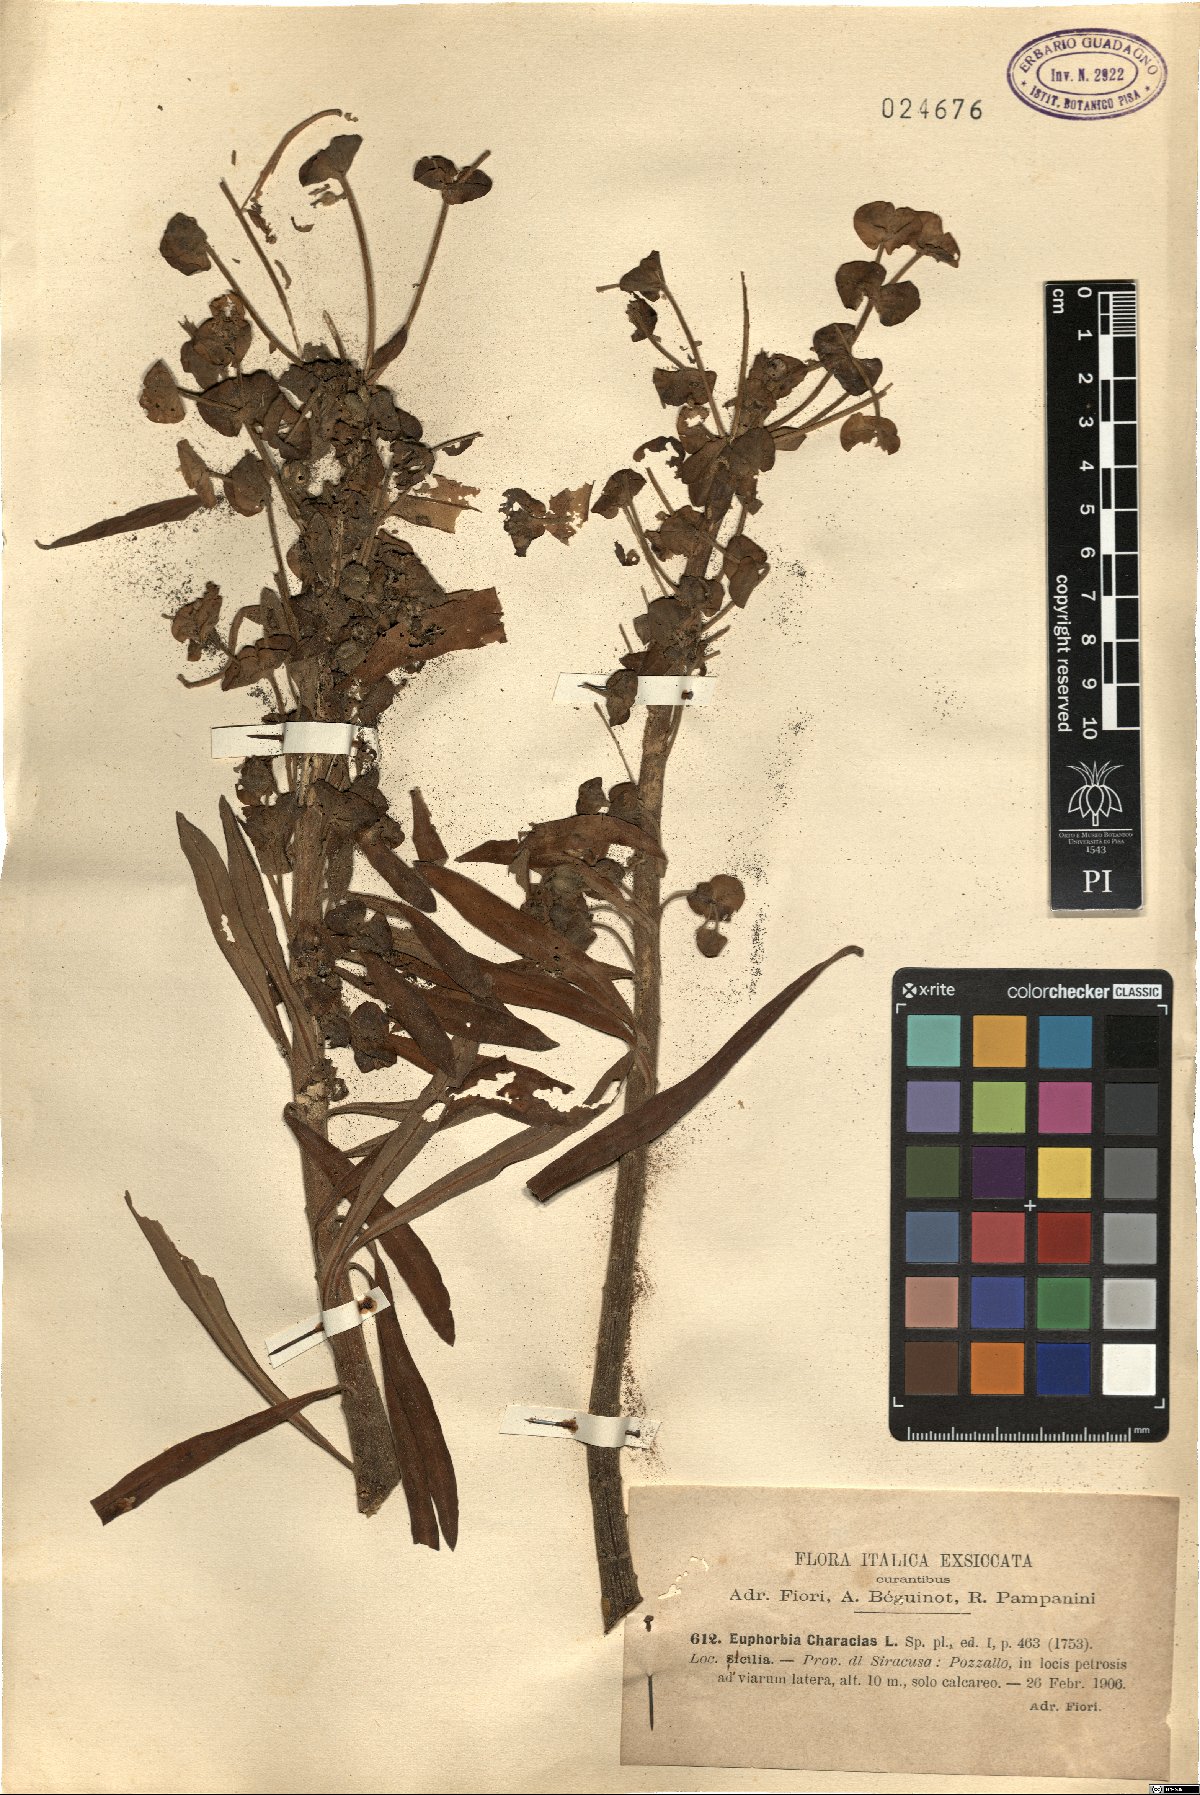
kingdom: Plantae
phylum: Tracheophyta
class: Magnoliopsida
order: Malpighiales
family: Euphorbiaceae
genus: Euphorbia
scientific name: Euphorbia characias
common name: Mediterranean spurge
